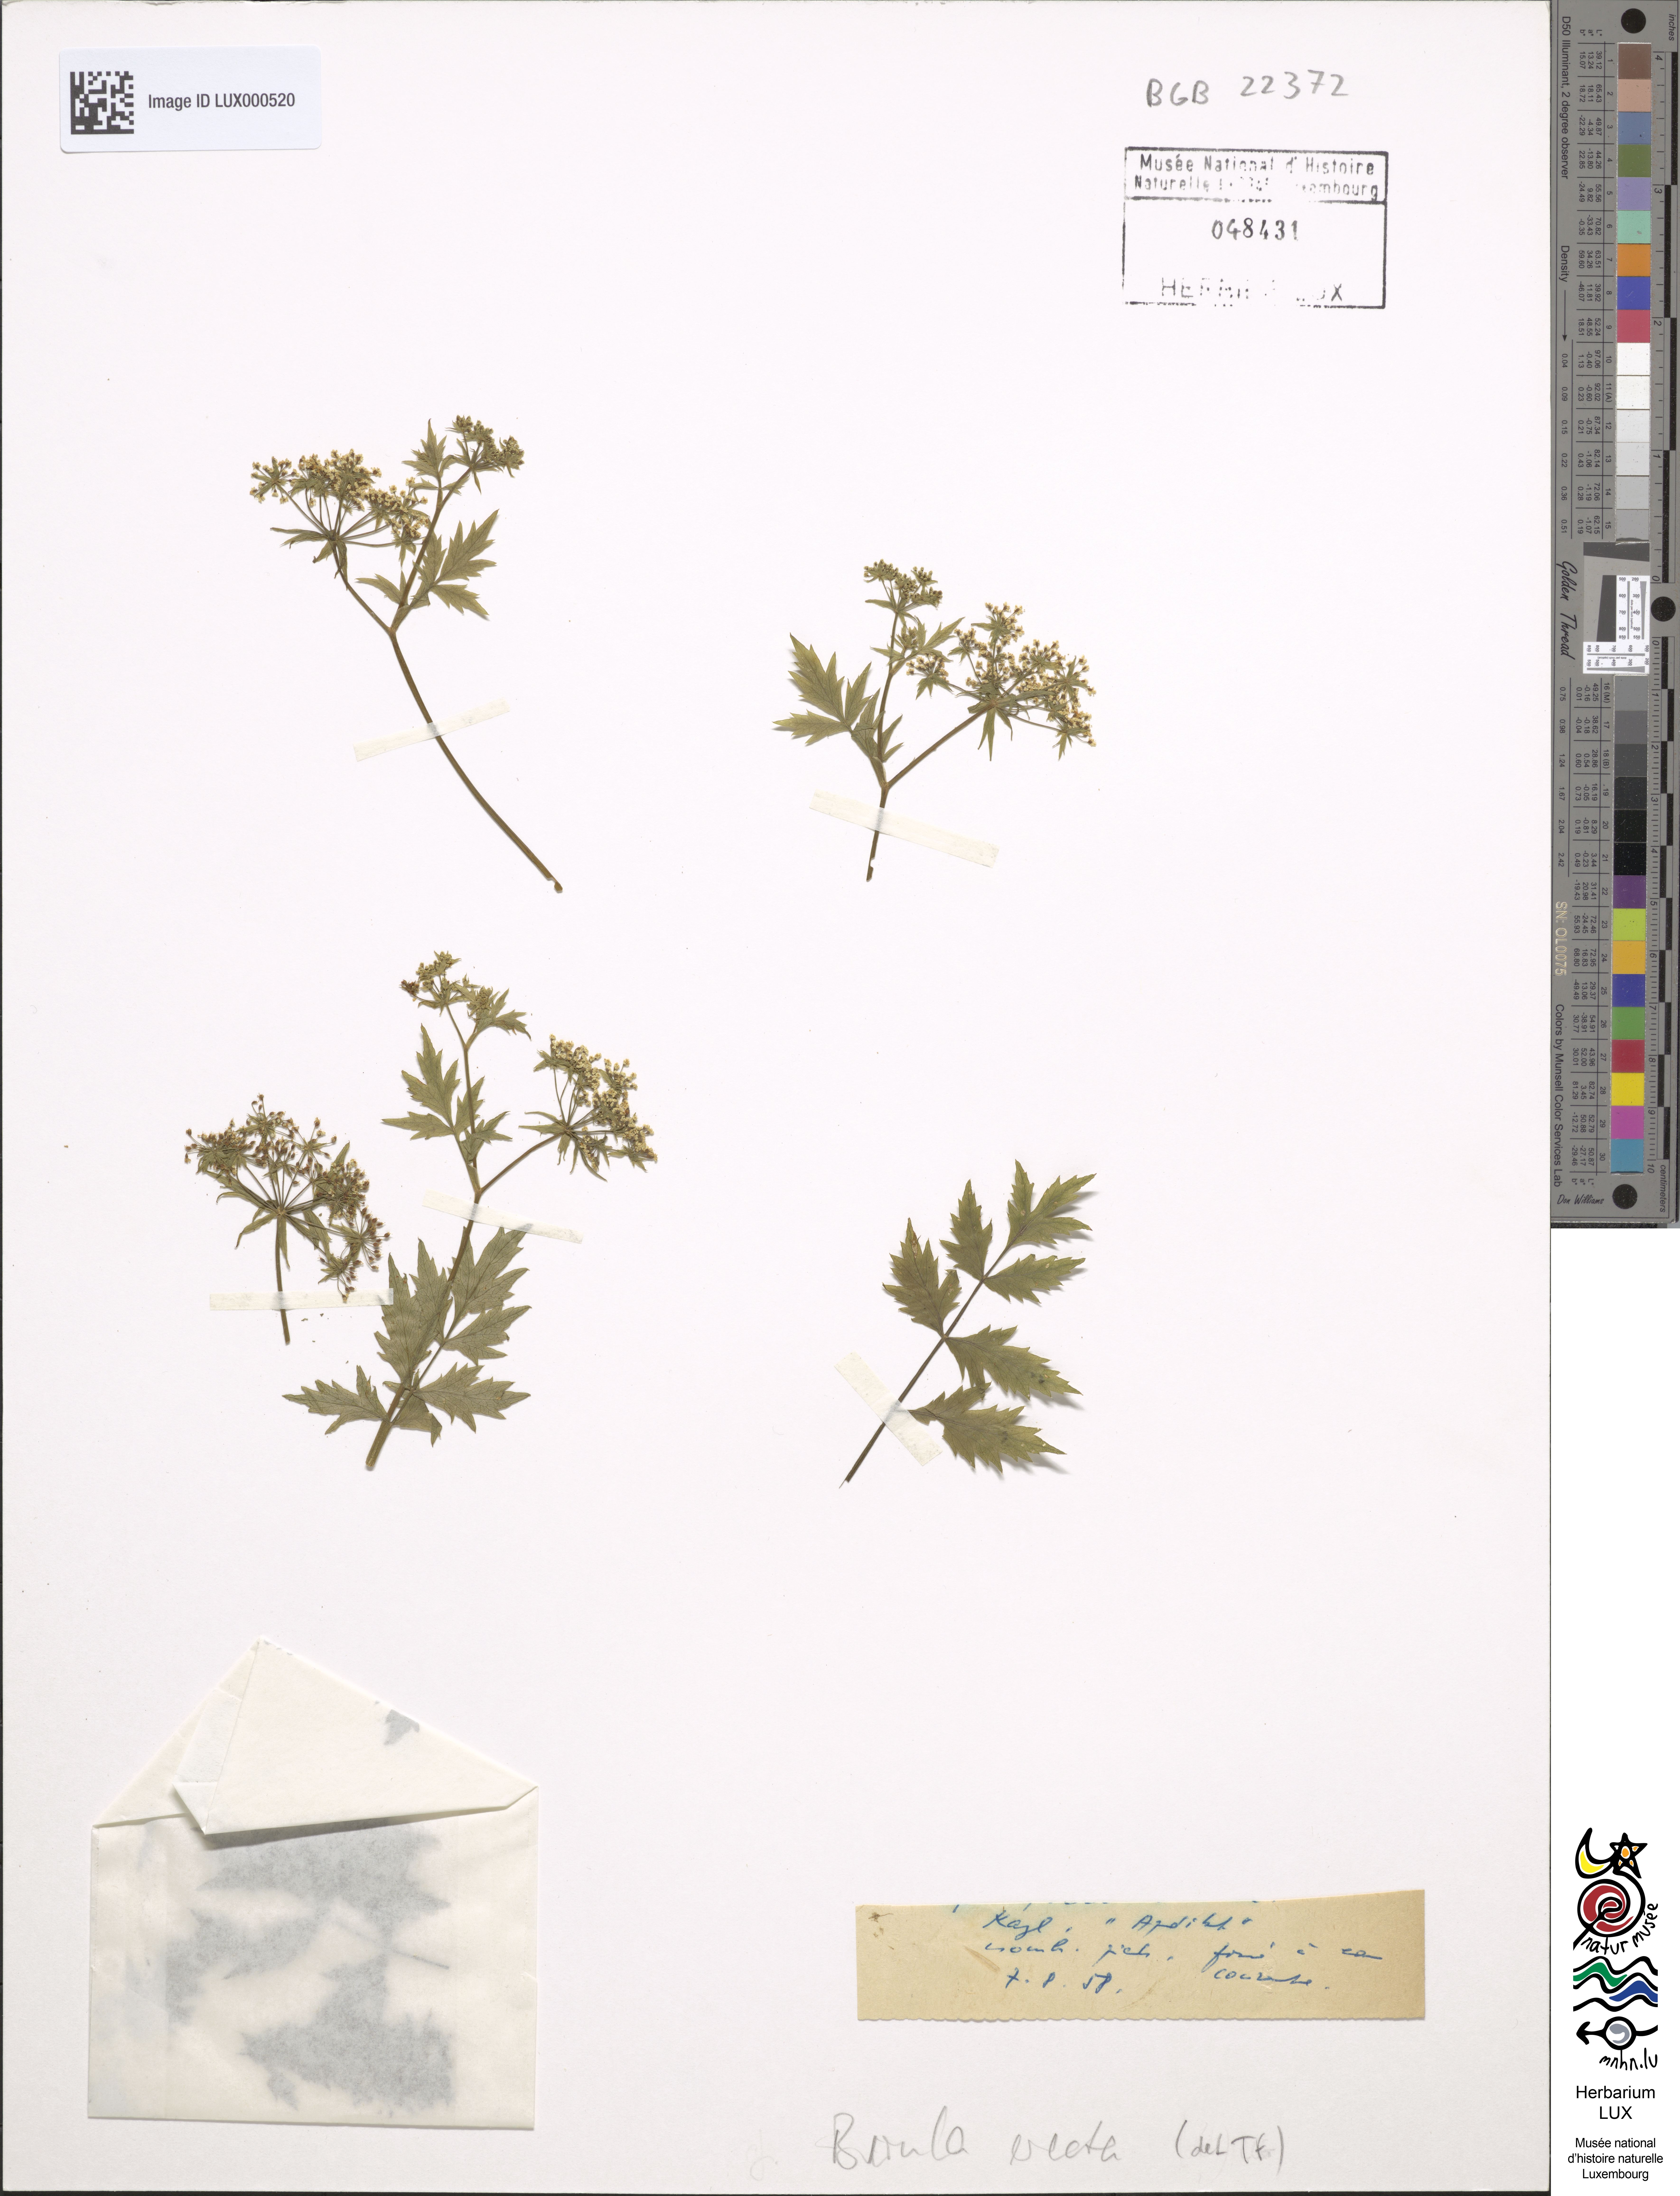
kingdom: Plantae
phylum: Tracheophyta
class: Magnoliopsida
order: Apiales
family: Apiaceae
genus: Berula
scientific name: Berula erecta
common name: Lesser water-parsnip
